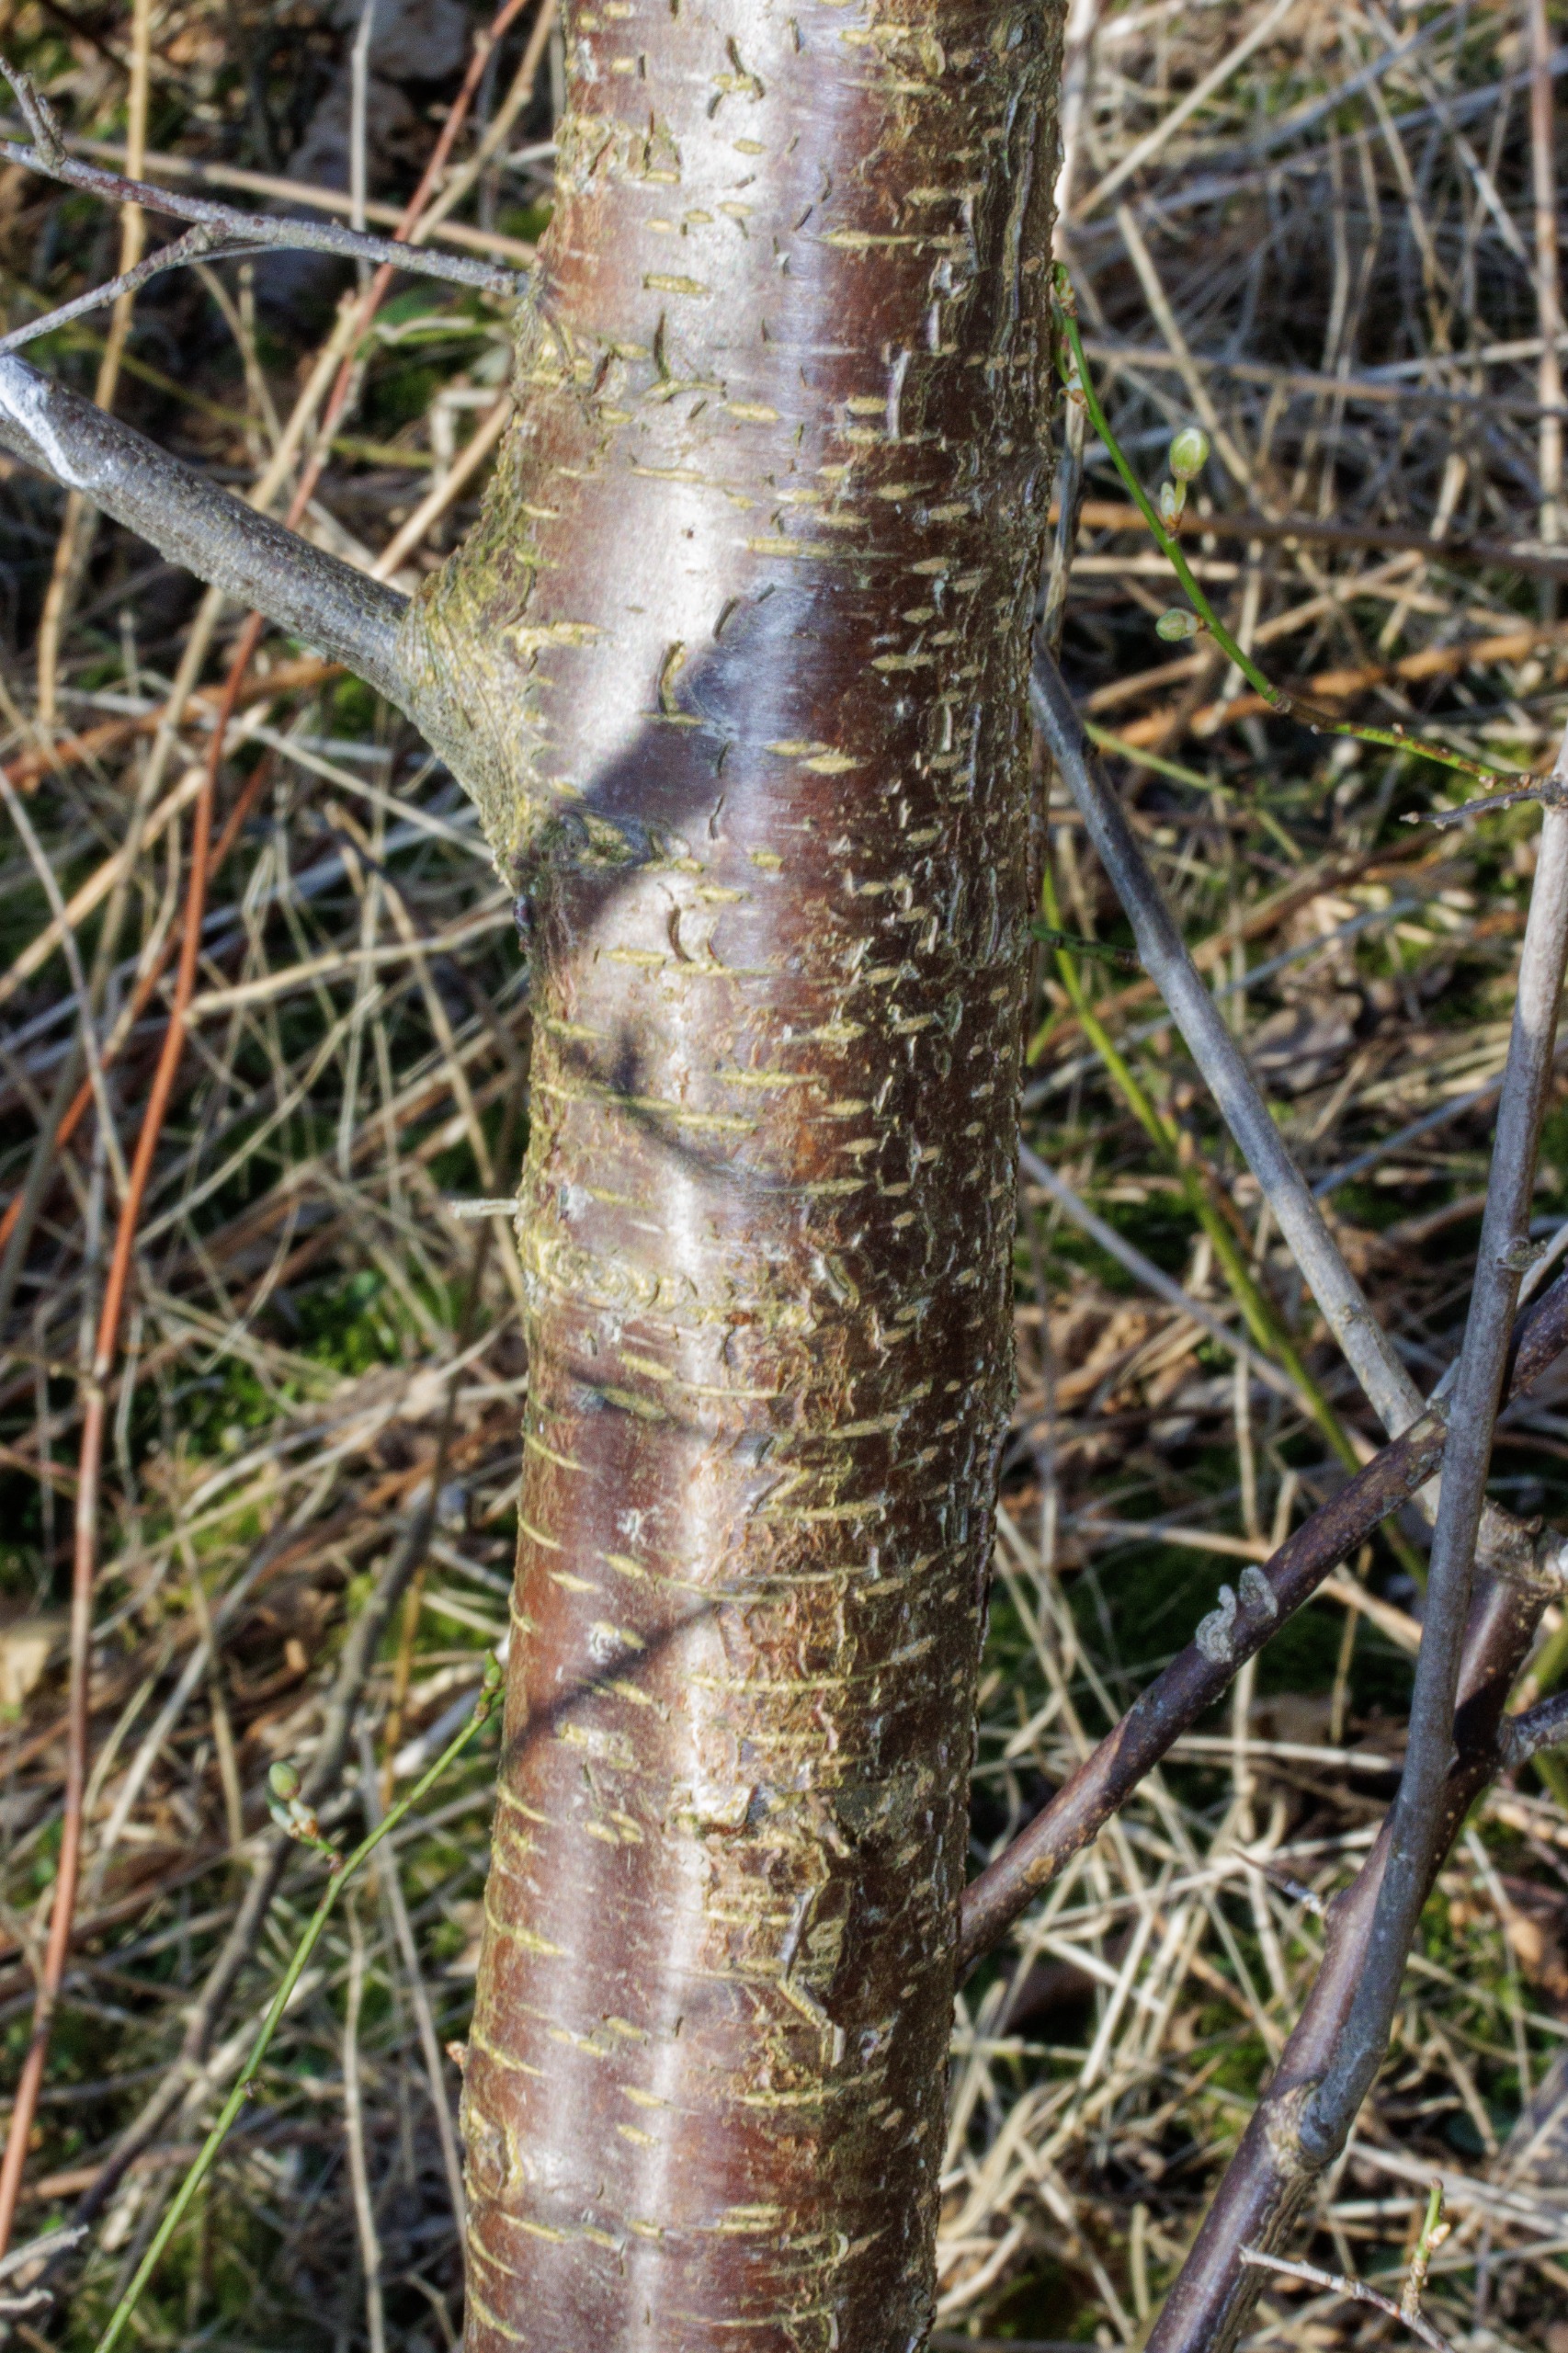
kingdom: Plantae
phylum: Tracheophyta
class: Magnoliopsida
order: Rosales
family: Rosaceae
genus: Prunus
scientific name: Prunus cerasifera
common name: Mirabel
